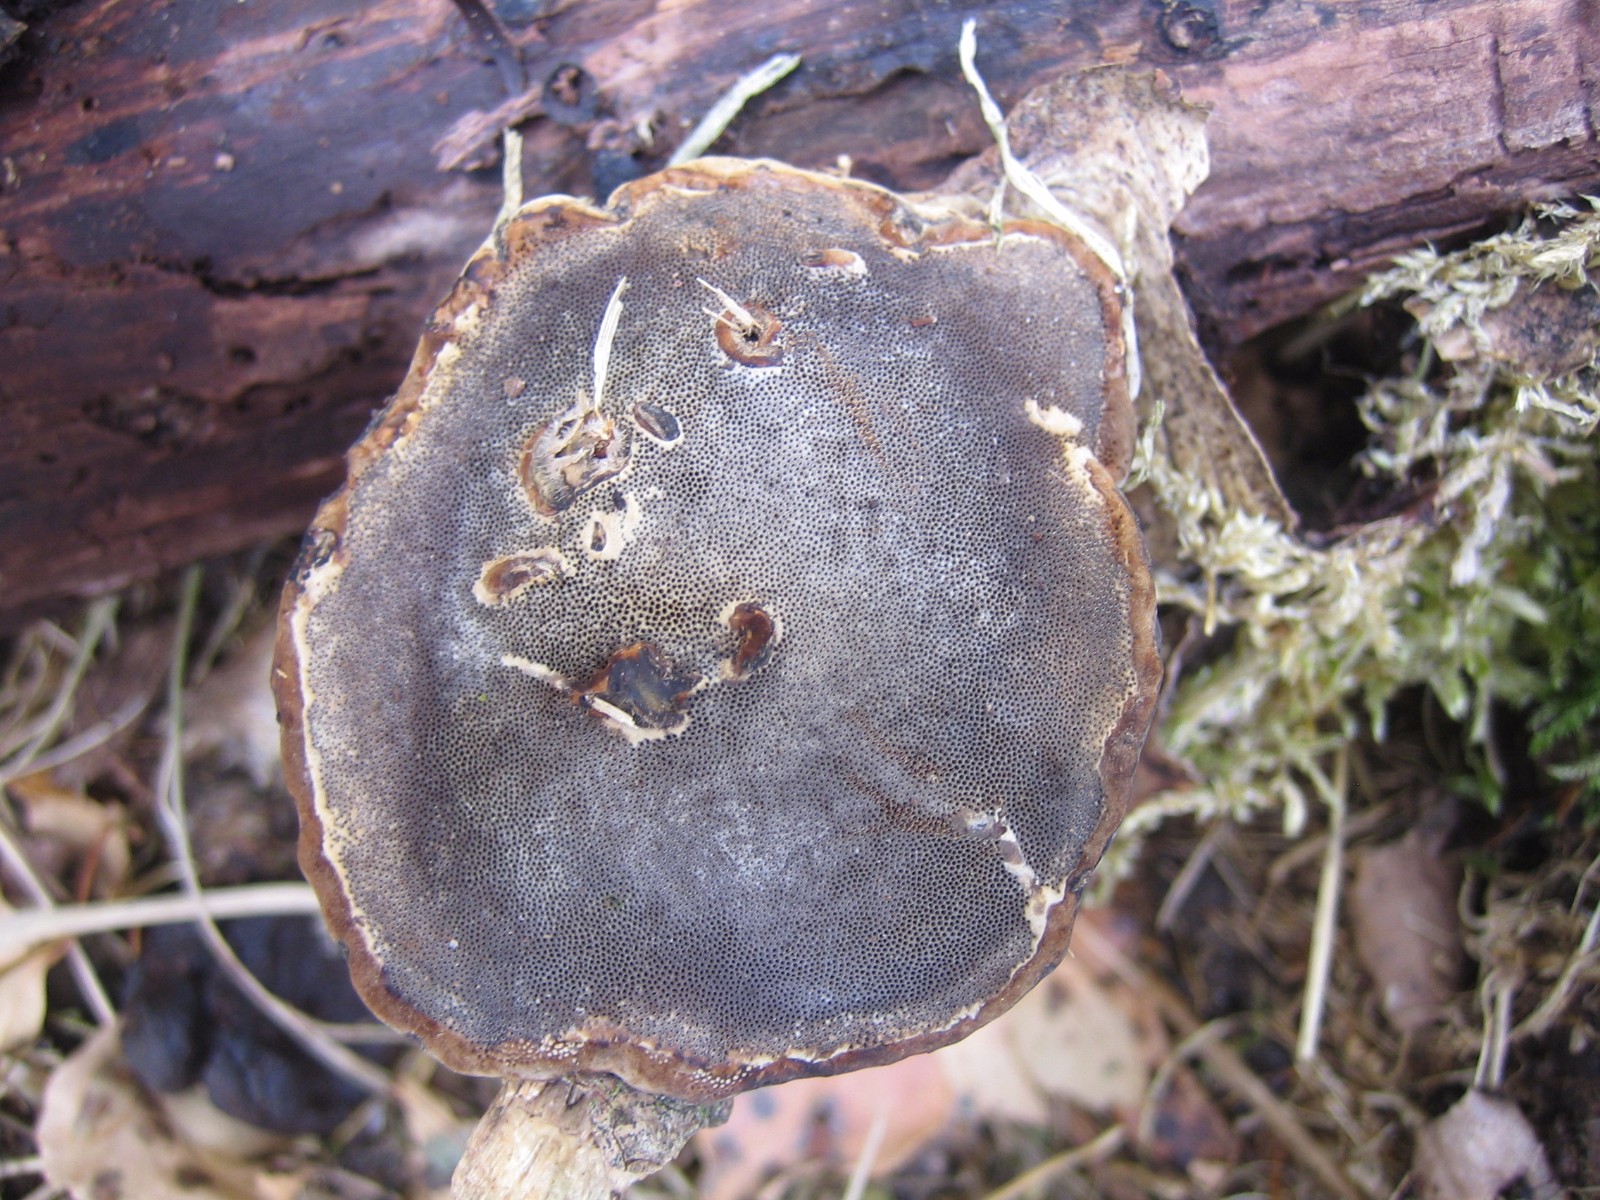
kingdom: Fungi
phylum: Basidiomycota
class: Agaricomycetes
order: Polyporales
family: Polyporaceae
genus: Fomes
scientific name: Fomes fomentarius
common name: tøndersvamp
